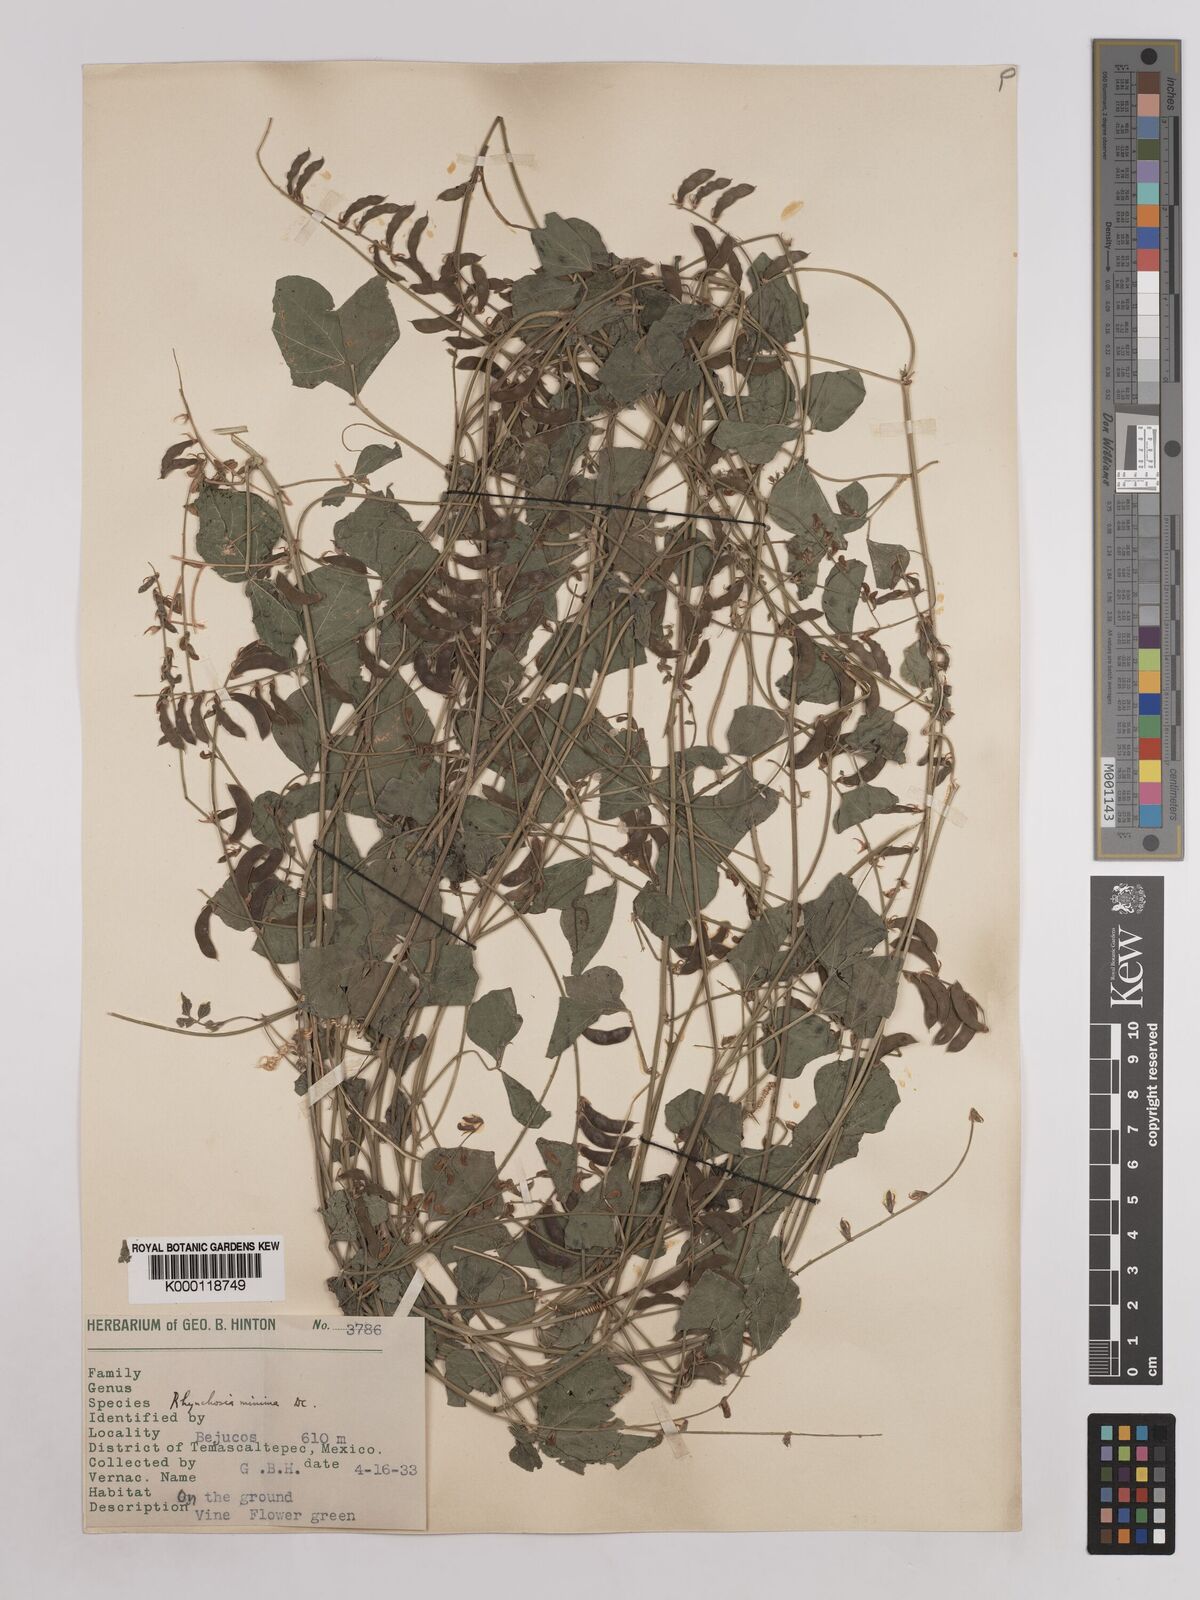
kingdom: Plantae
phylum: Tracheophyta
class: Magnoliopsida
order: Fabales
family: Fabaceae
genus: Rhynchosia
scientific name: Rhynchosia minima
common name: Least snoutbean
